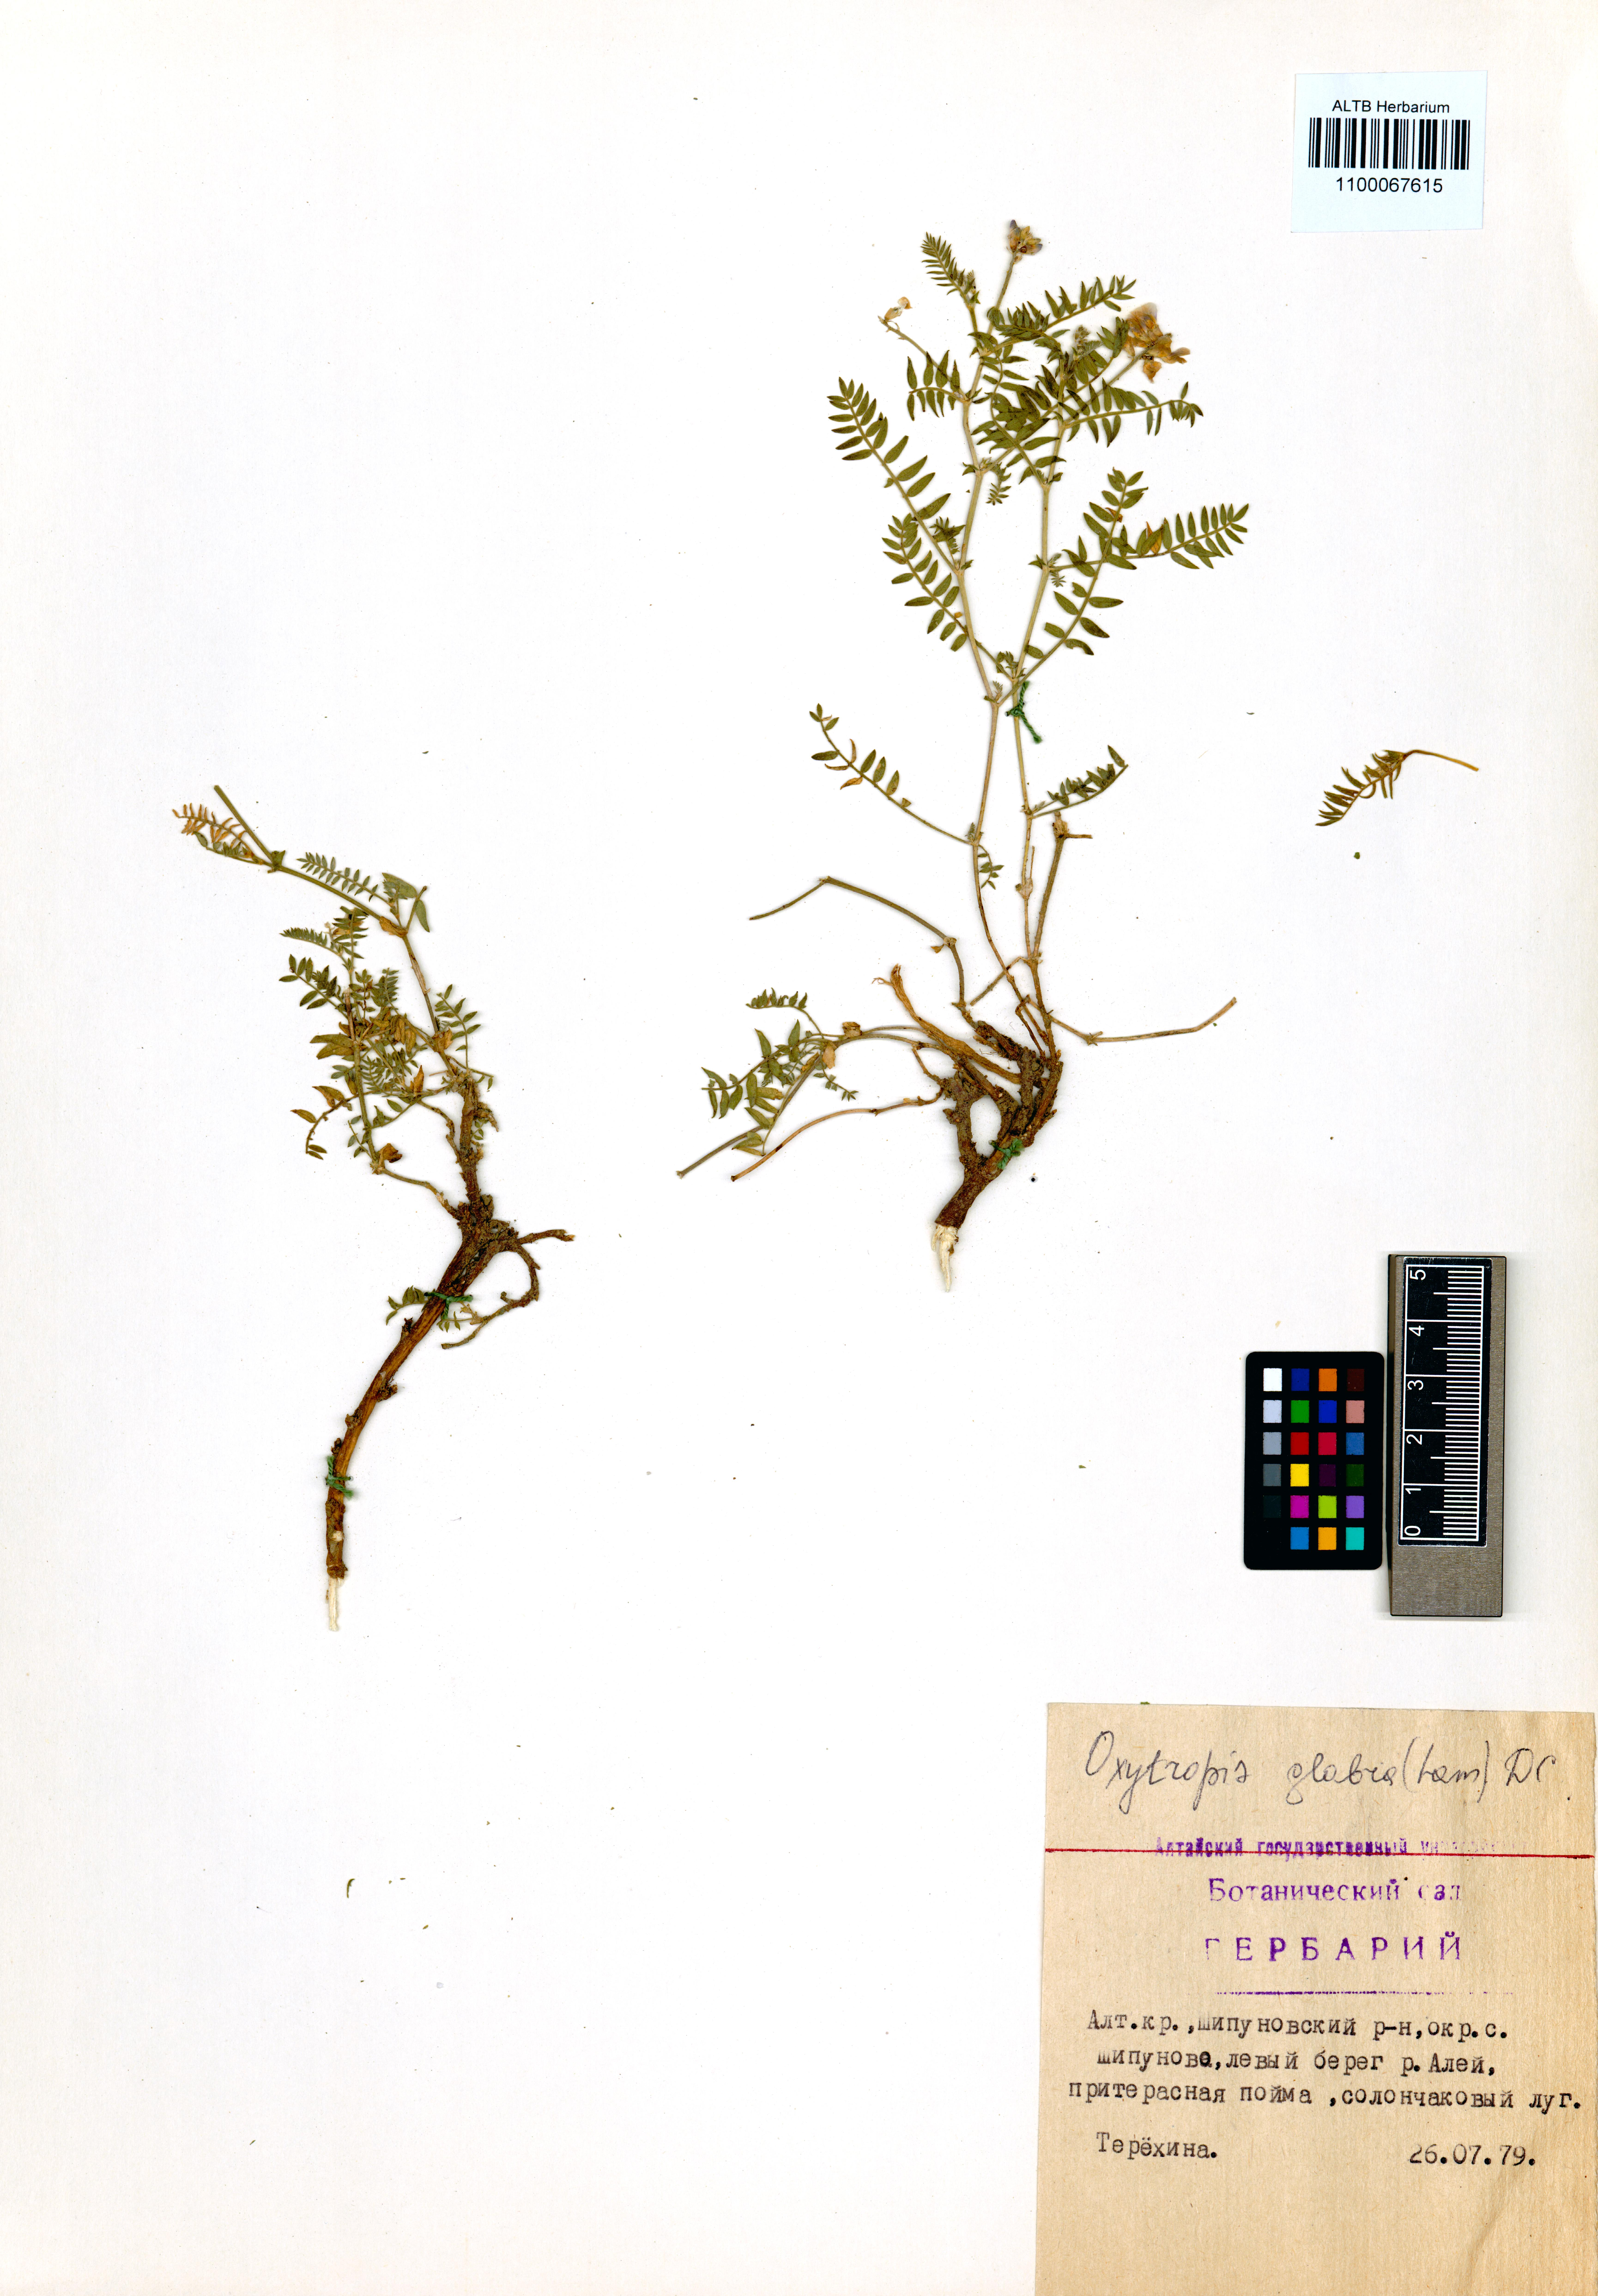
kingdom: Plantae
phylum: Tracheophyta
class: Magnoliopsida
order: Fabales
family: Fabaceae
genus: Oxytropis
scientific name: Oxytropis glabra
